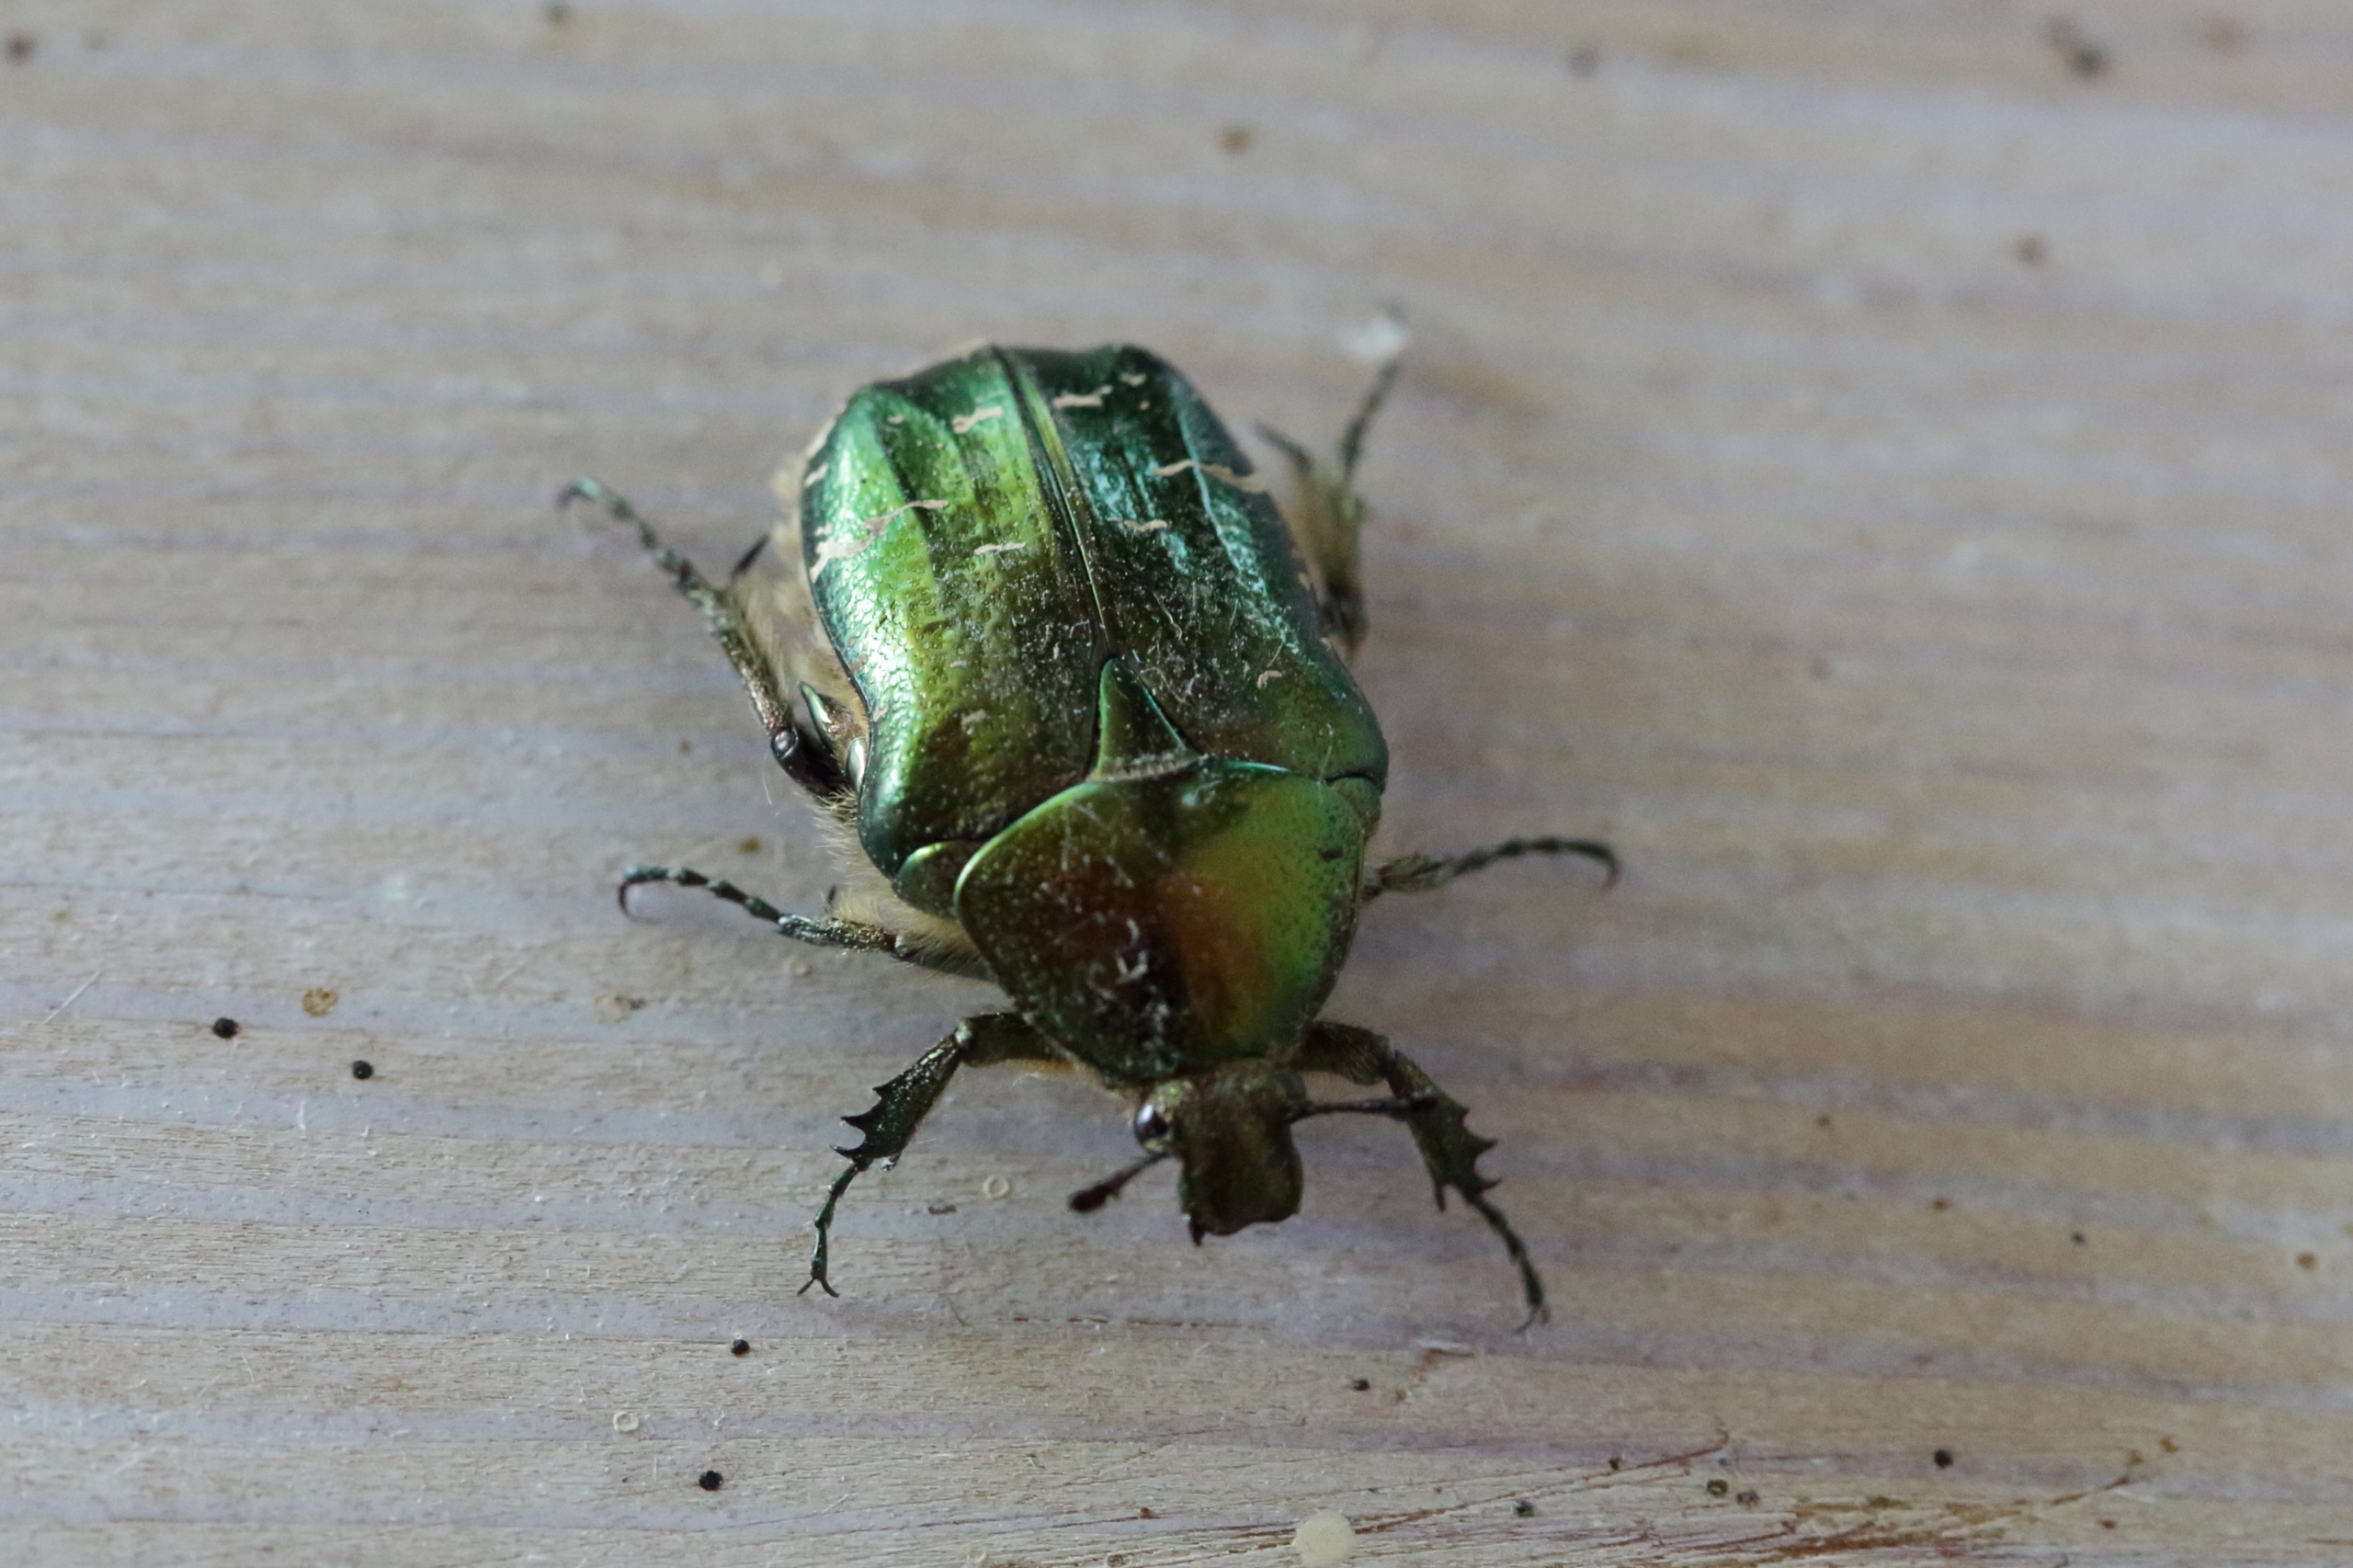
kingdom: Animalia
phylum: Arthropoda
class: Insecta
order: Coleoptera
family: Scarabaeidae
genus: Cetonia
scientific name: Cetonia aurata
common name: Grøn guldbasse
